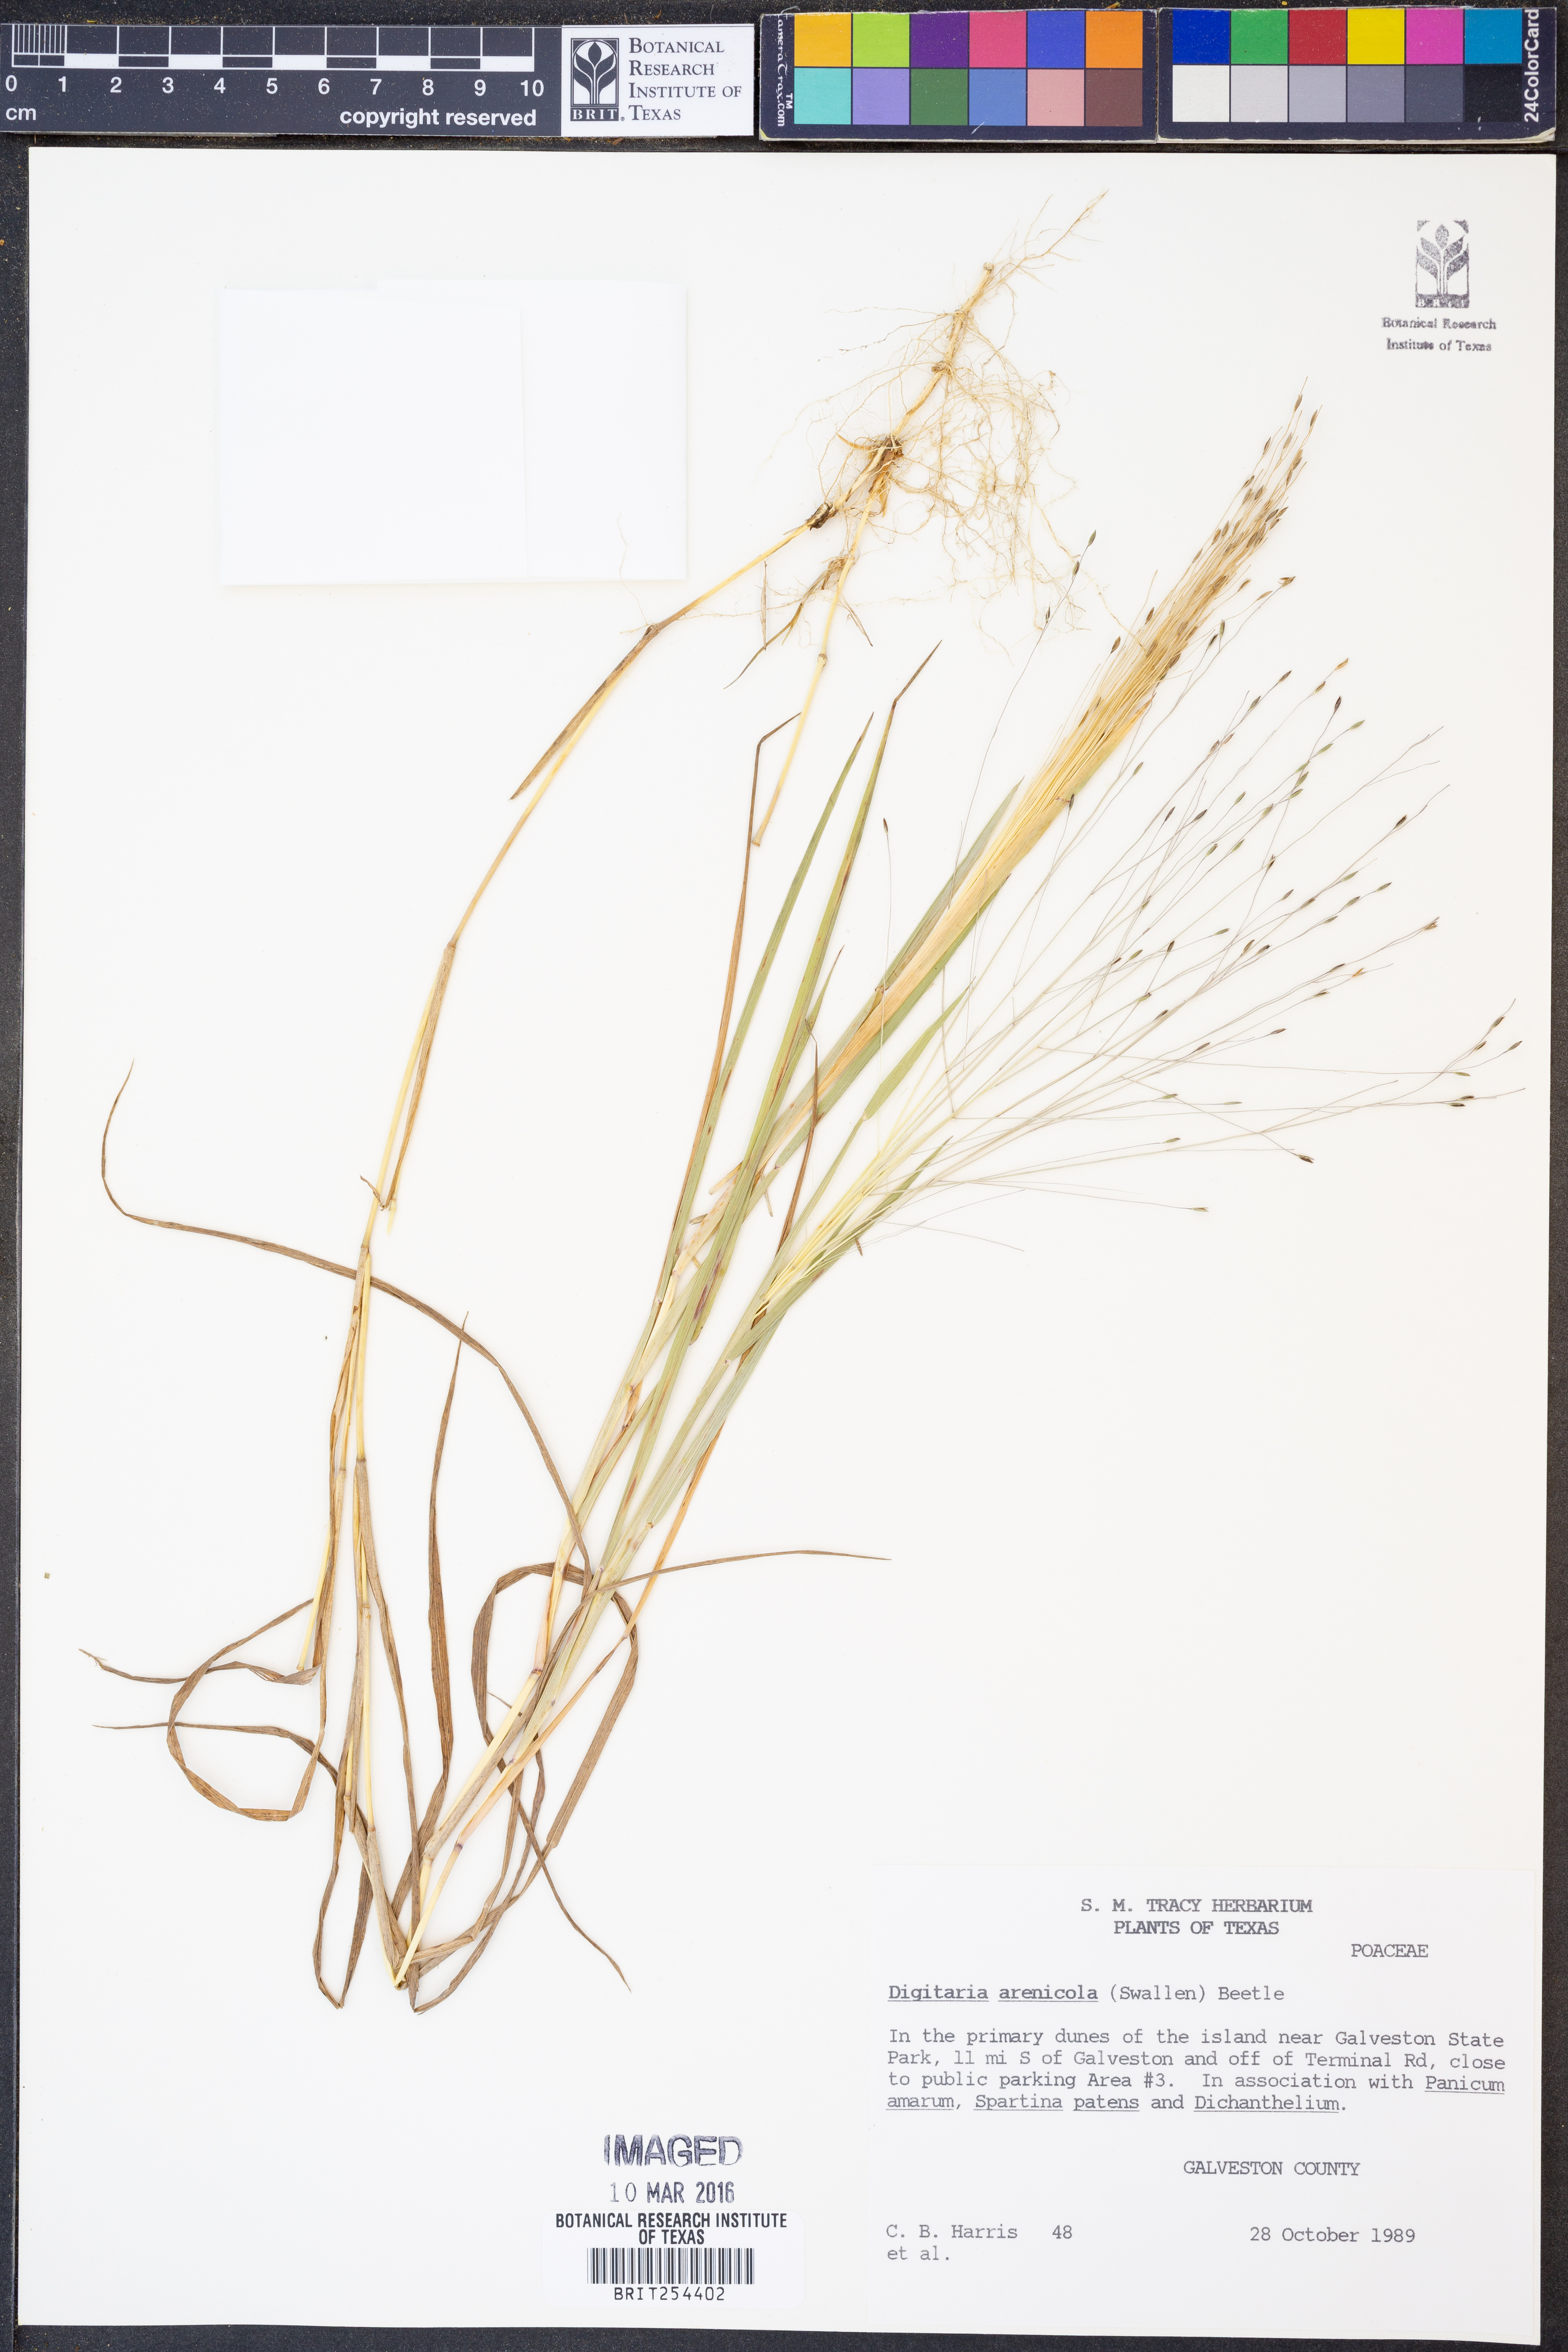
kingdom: Plantae
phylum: Tracheophyta
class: Liliopsida
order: Poales
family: Poaceae
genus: Digitaria
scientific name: Digitaria arenicola
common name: Sand witchgrass
